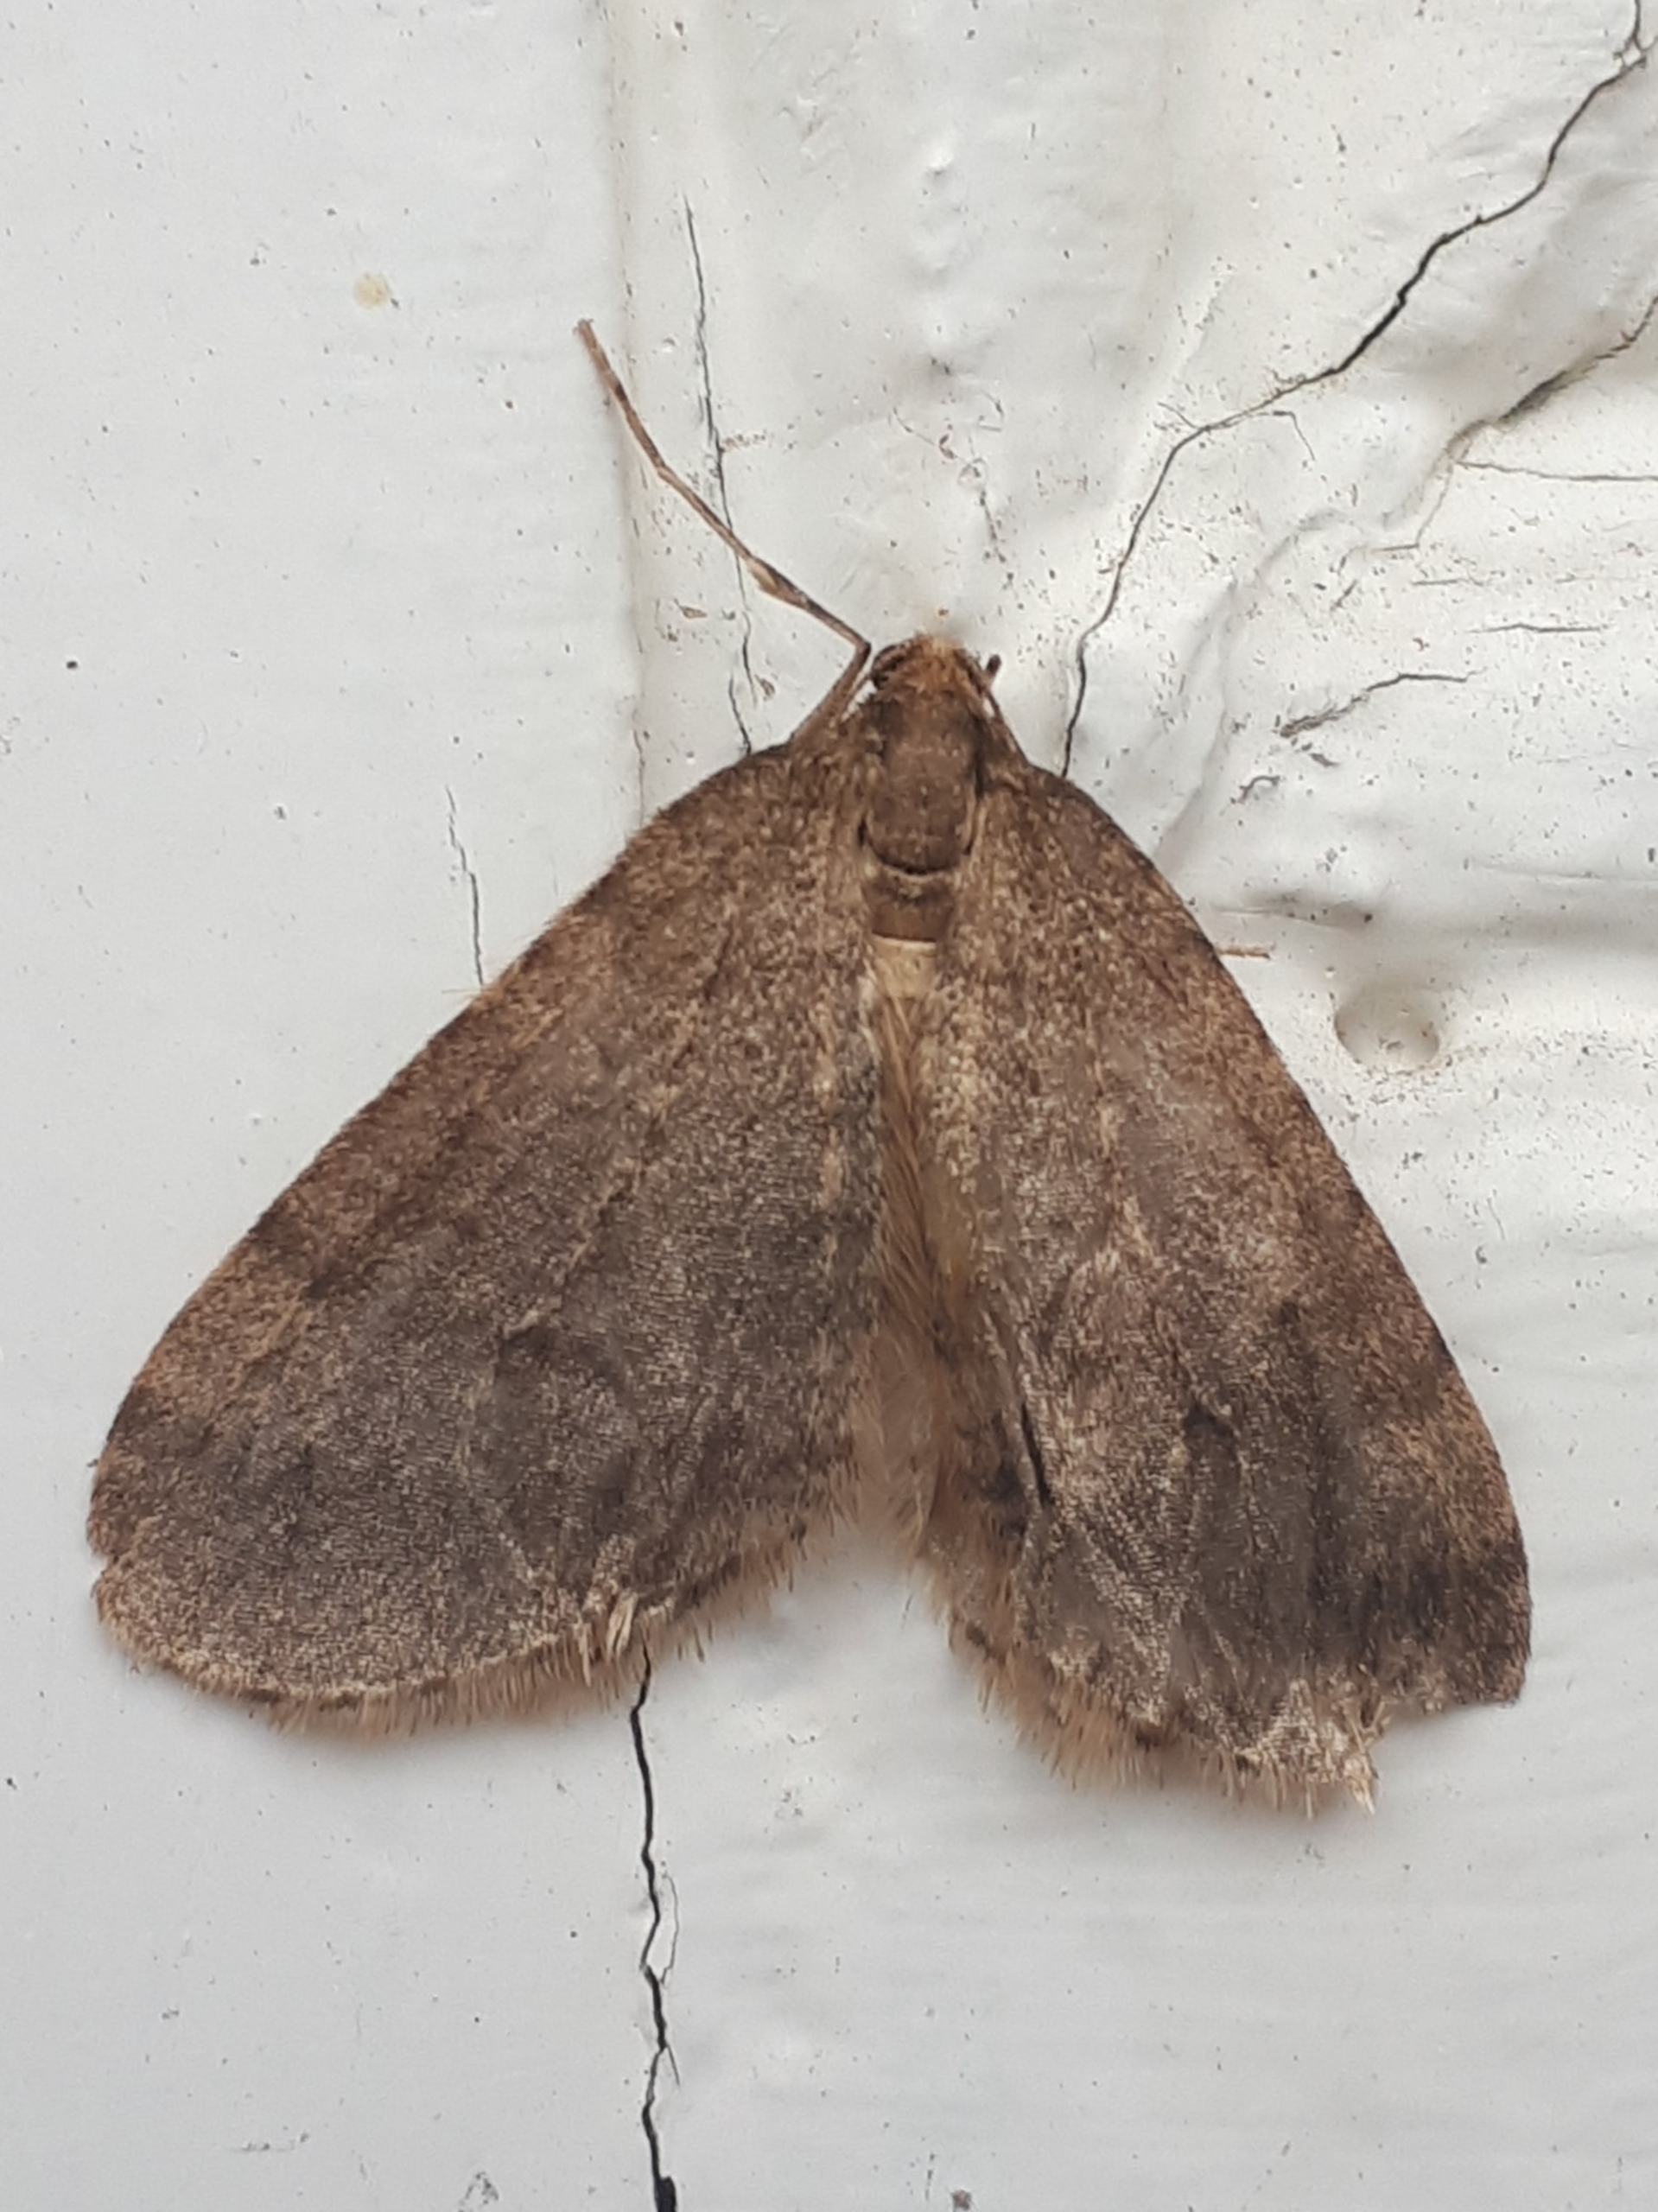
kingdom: Animalia
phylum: Arthropoda
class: Insecta
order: Lepidoptera
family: Geometridae
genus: Operophtera
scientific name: Operophtera brumata
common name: Lille frostmåler
